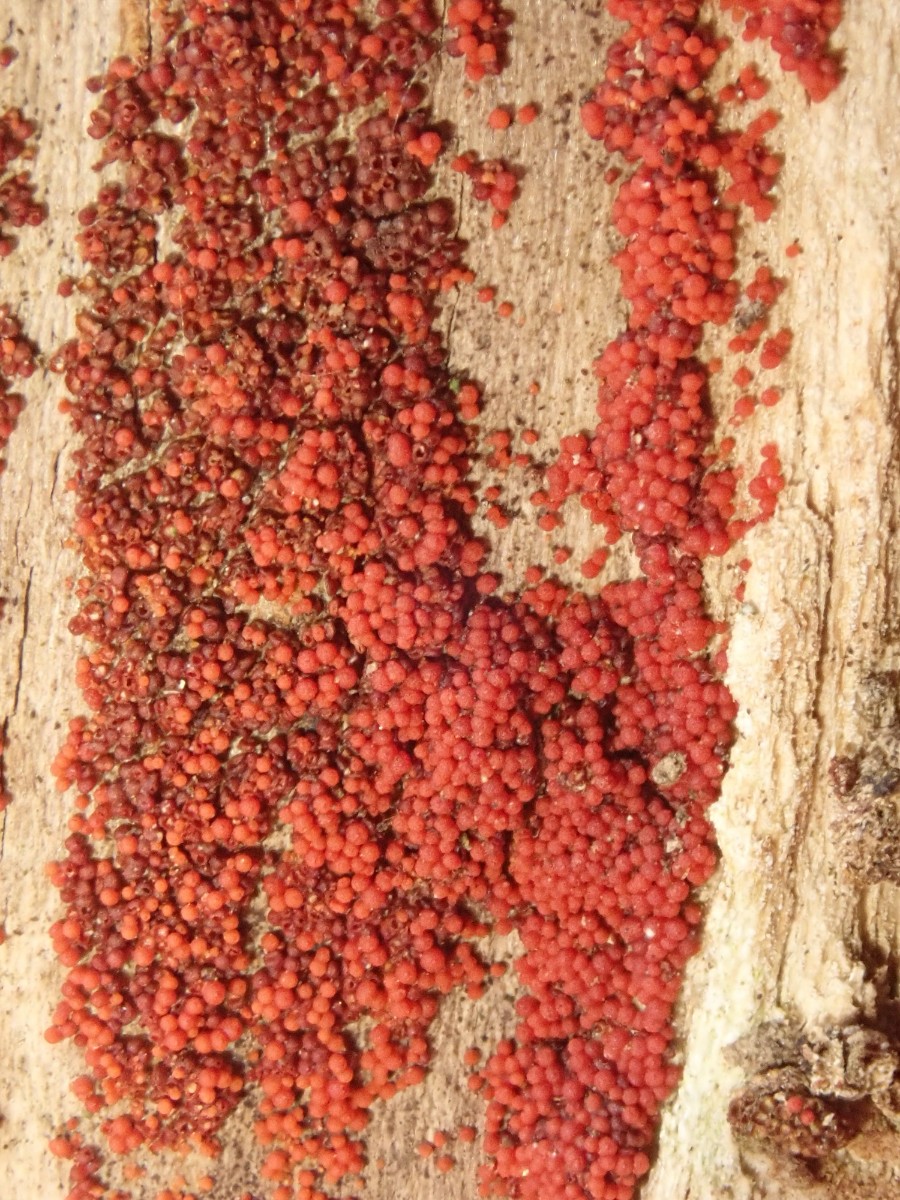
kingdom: Fungi
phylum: Ascomycota
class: Sordariomycetes
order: Hypocreales
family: Nectriaceae
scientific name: Nectriaceae
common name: cinnobersvampfamilien
